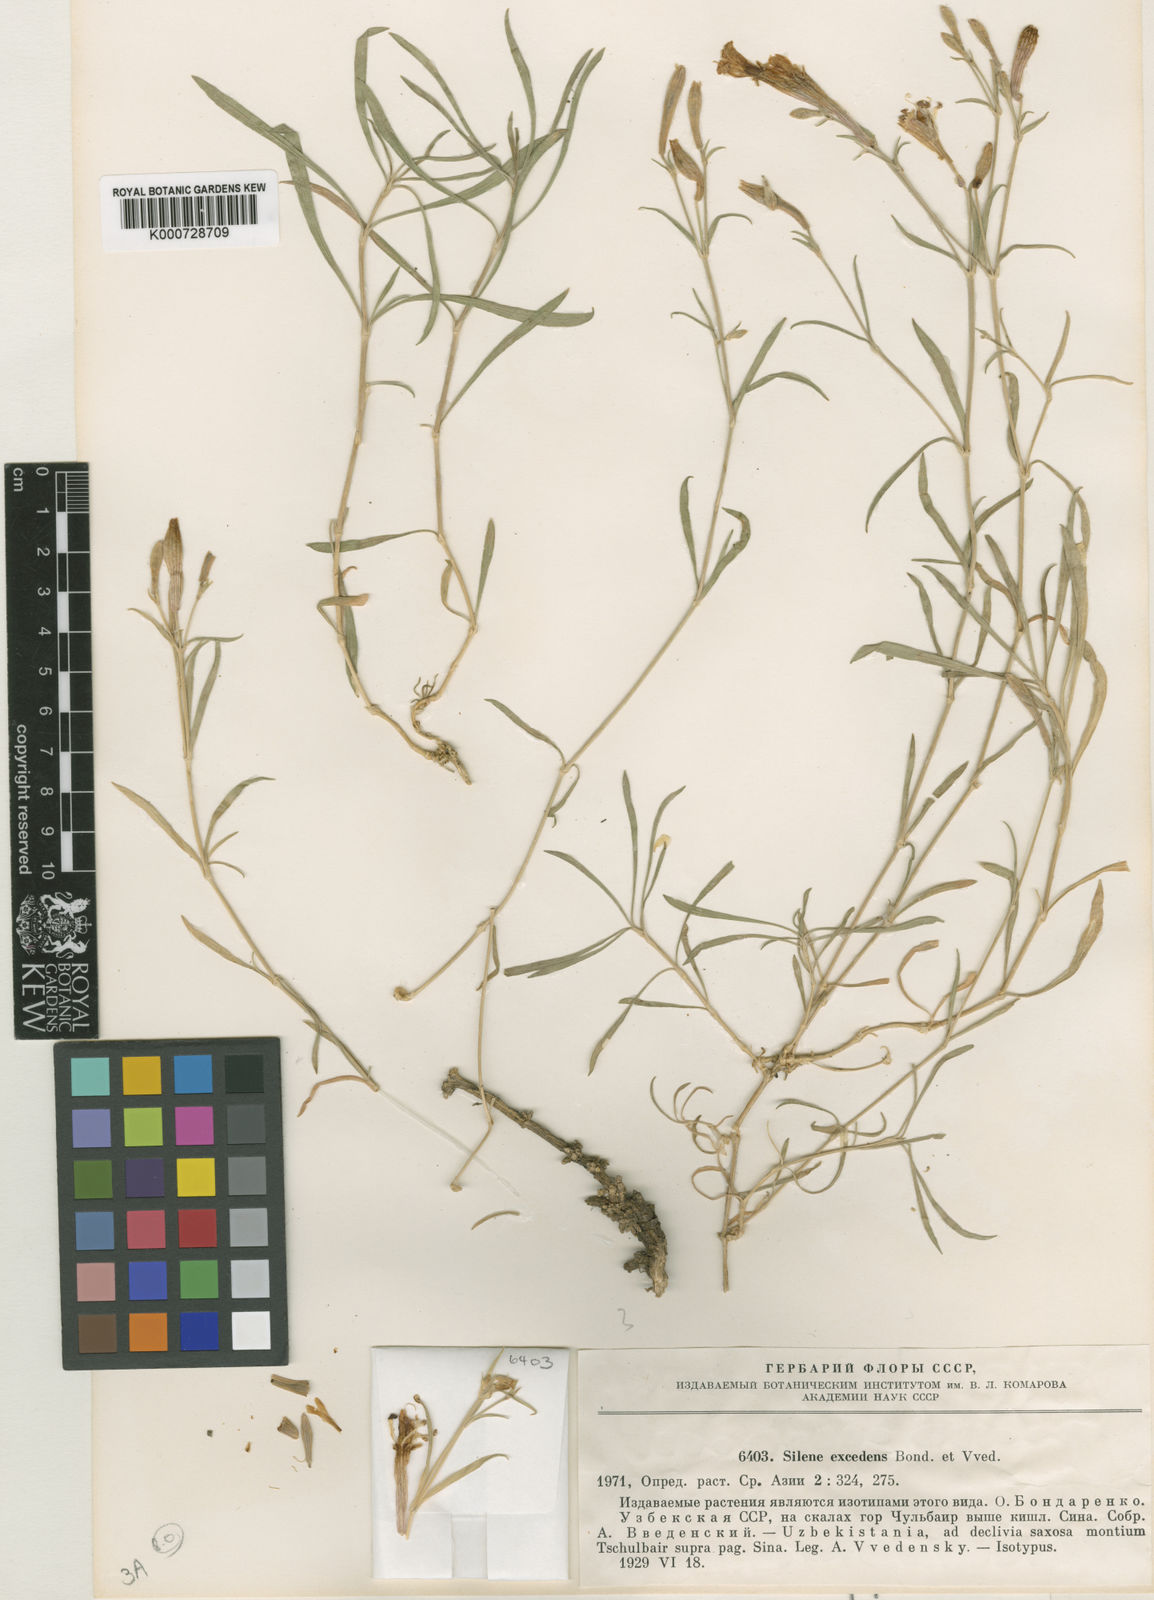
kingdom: Plantae
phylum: Tracheophyta
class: Magnoliopsida
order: Caryophyllales
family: Caryophyllaceae
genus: Silene
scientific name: Silene kuschakewiczii
